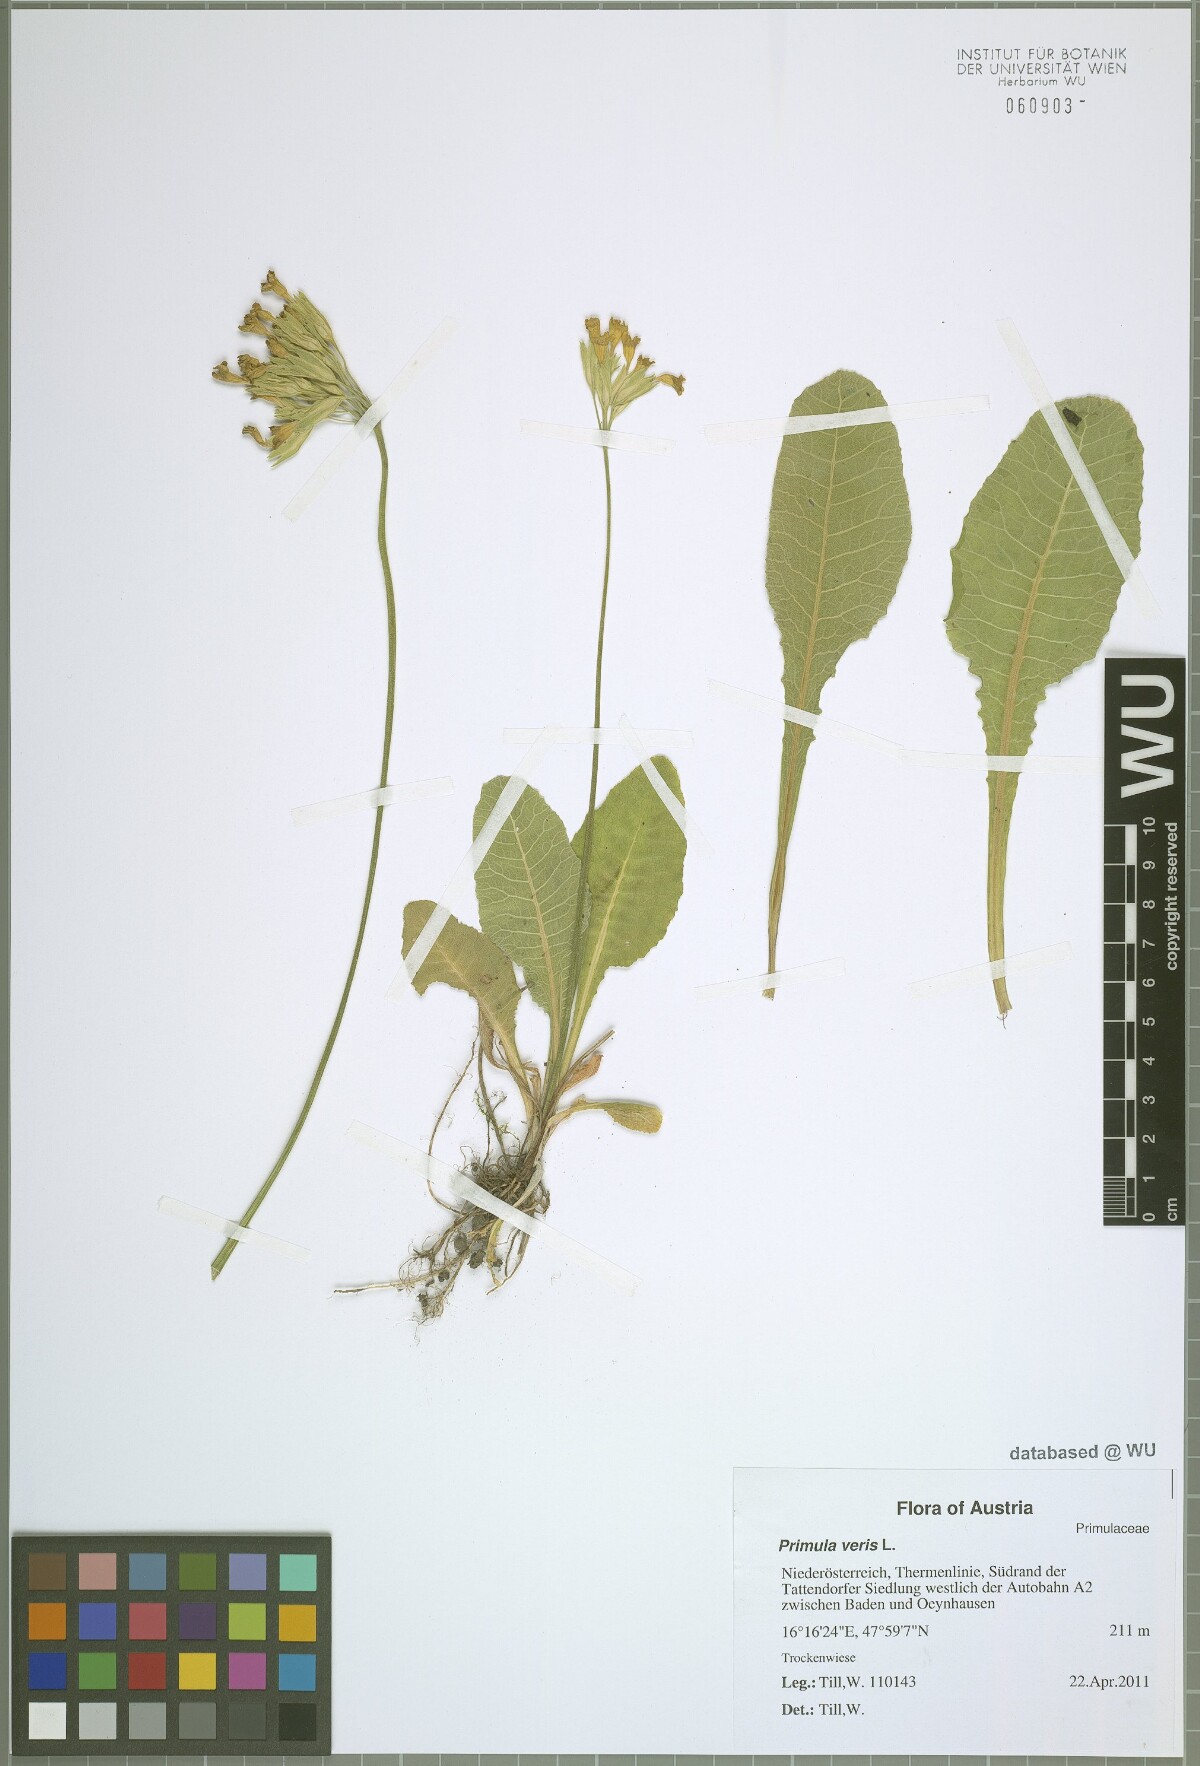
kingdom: Plantae
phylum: Tracheophyta
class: Magnoliopsida
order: Ericales
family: Primulaceae
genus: Primula
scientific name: Primula veris
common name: Cowslip
